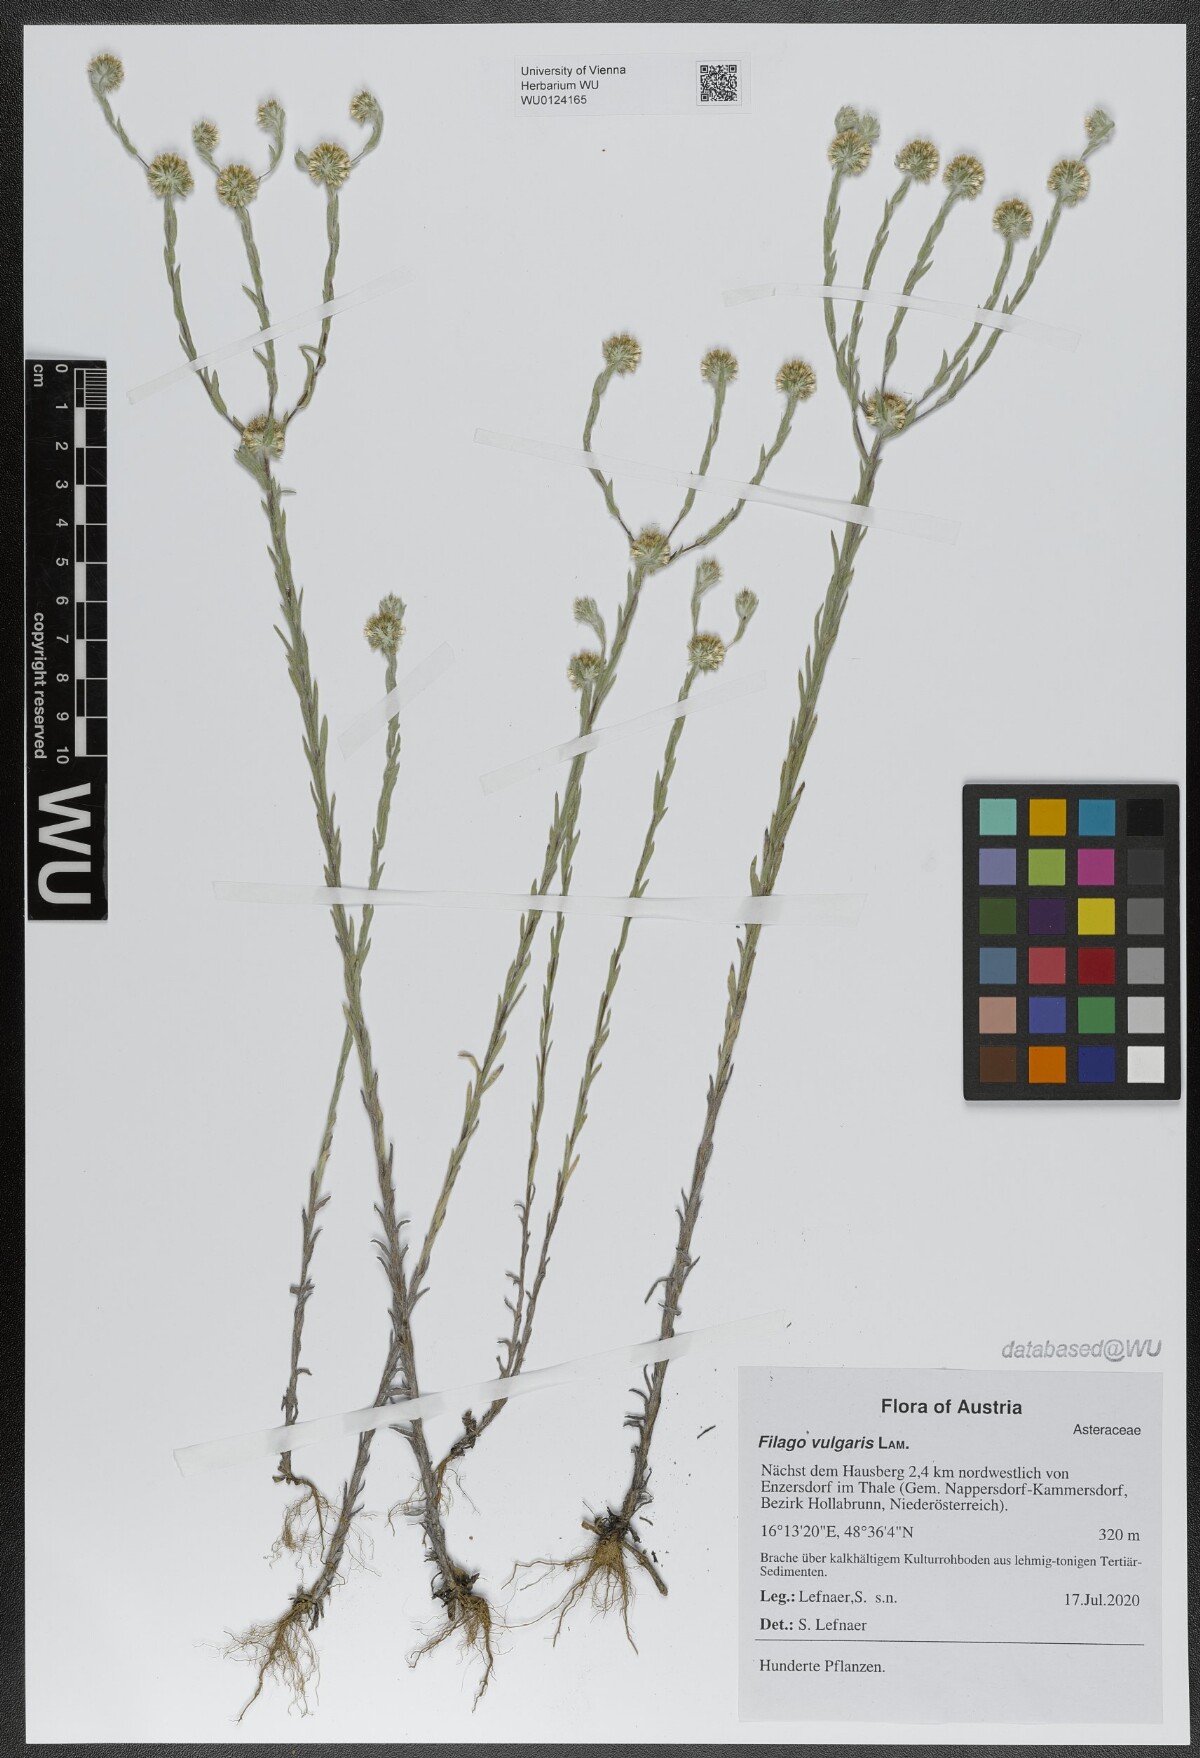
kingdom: Plantae
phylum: Tracheophyta
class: Magnoliopsida
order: Asterales
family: Asteraceae
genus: Filago
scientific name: Filago germanica
